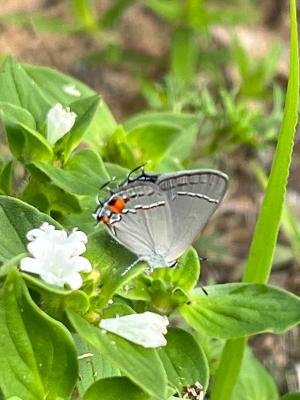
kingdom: Animalia
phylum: Arthropoda
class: Insecta
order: Lepidoptera
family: Lycaenidae
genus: Strymon
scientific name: Strymon melinus
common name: Gray Hairstreak
